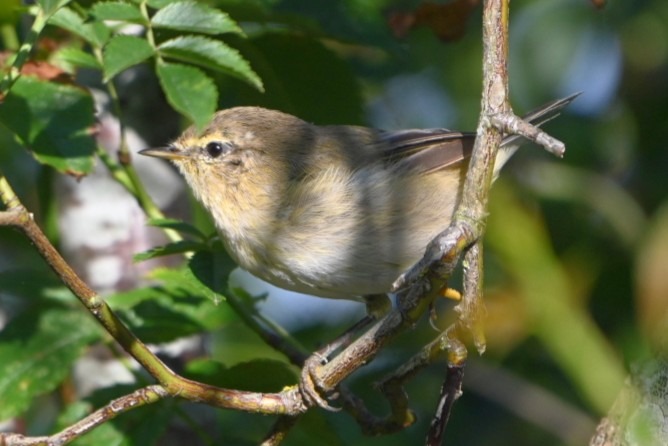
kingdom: Animalia
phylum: Chordata
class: Aves
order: Passeriformes
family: Phylloscopidae
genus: Phylloscopus
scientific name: Phylloscopus collybita
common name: Gransanger
